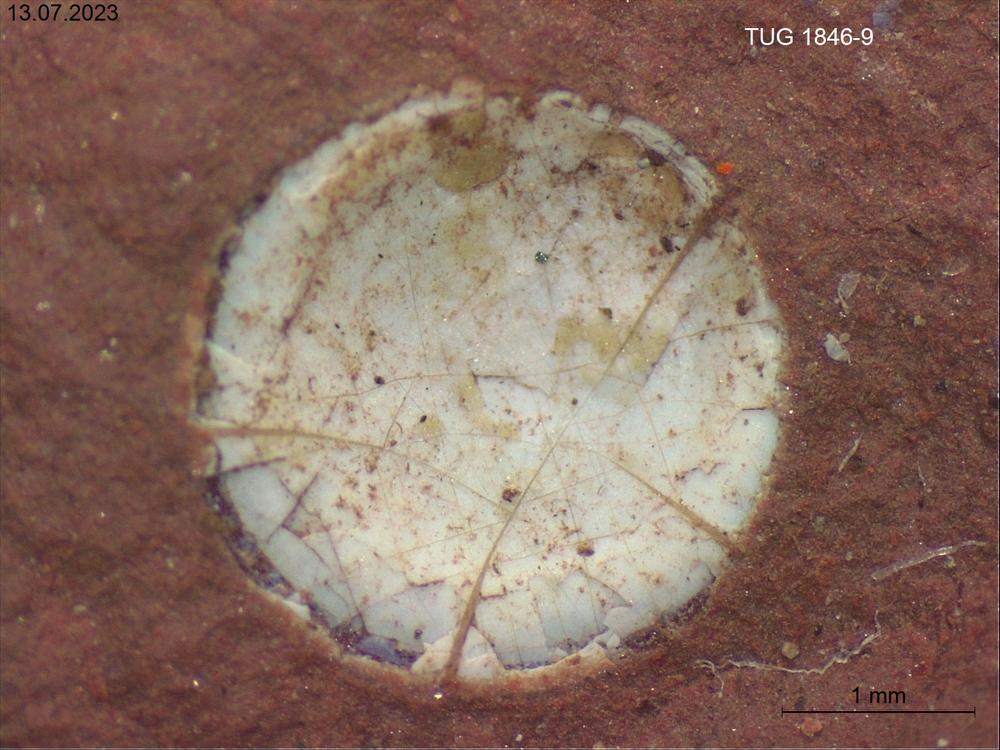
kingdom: Animalia
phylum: Brachiopoda
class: Lingulata
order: Lingulida
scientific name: Lingulida
